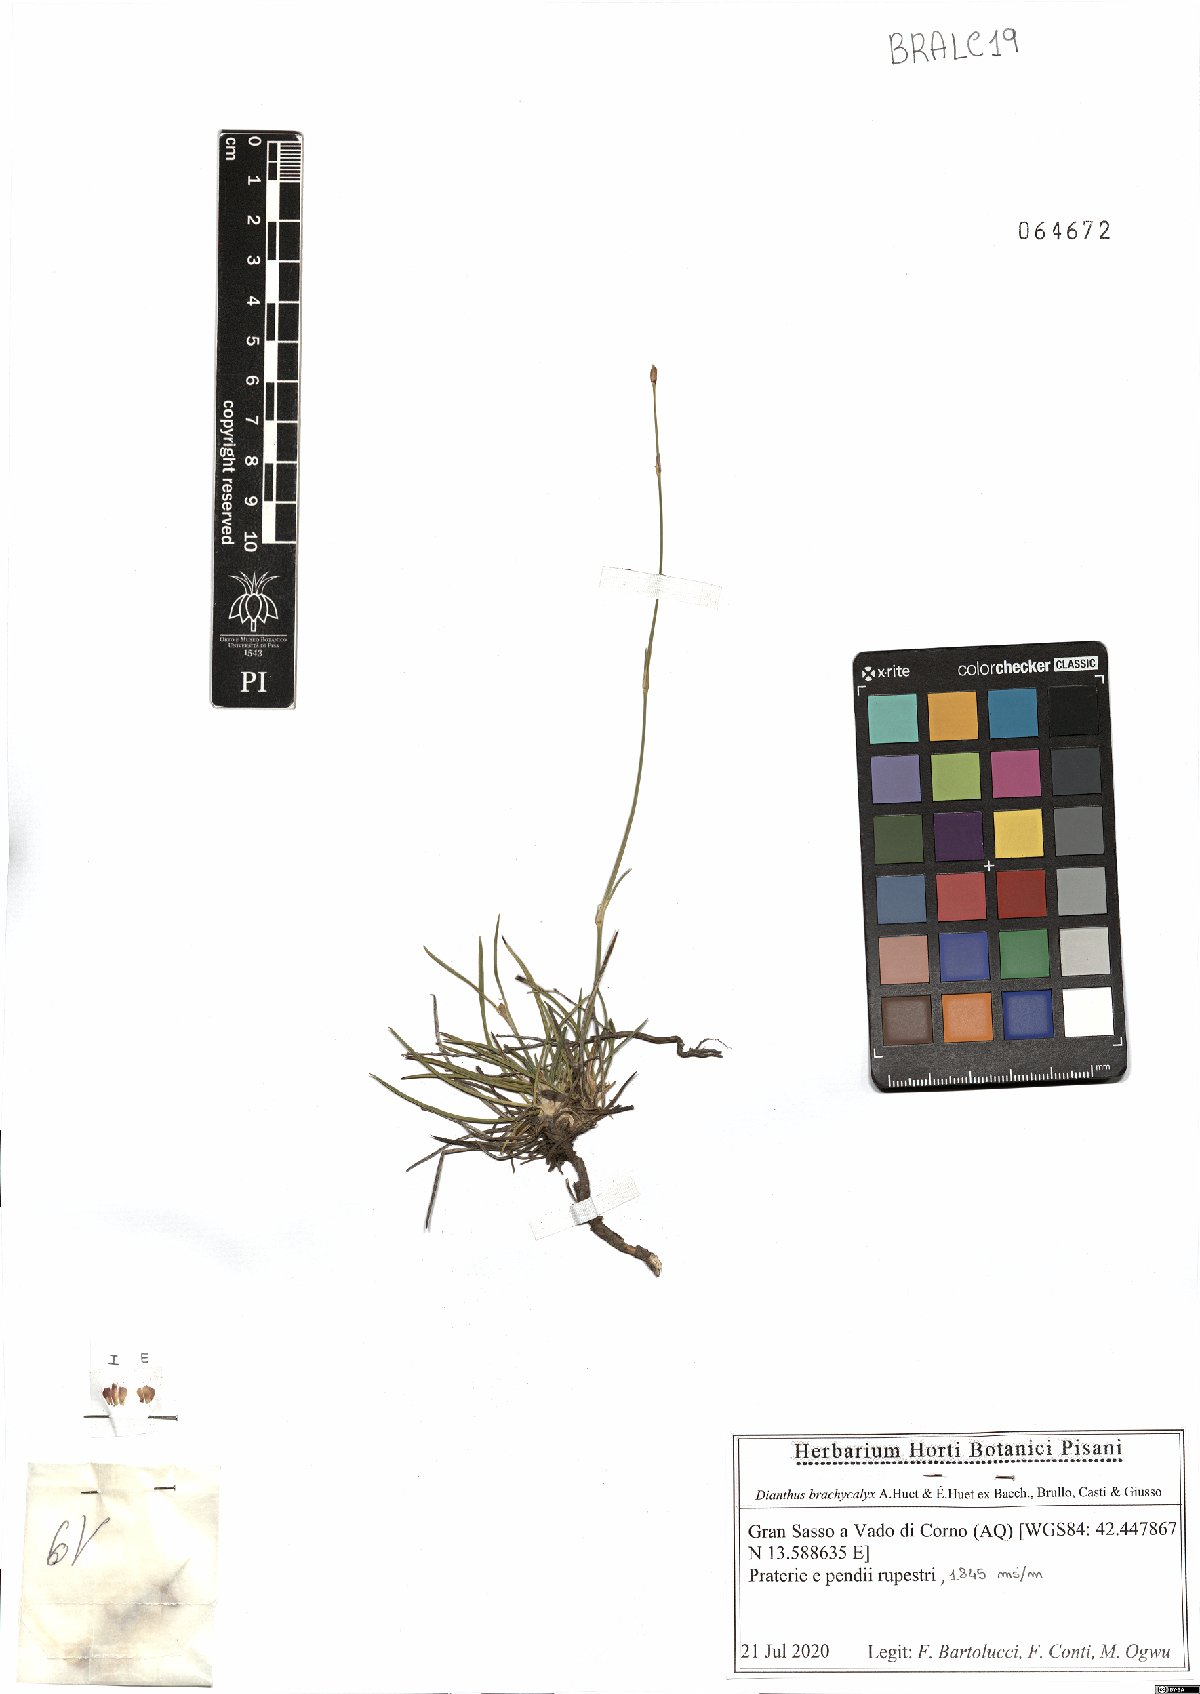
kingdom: Plantae
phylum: Tracheophyta
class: Magnoliopsida
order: Caryophyllales
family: Caryophyllaceae
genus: Dianthus
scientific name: Dianthus brachycalyx
